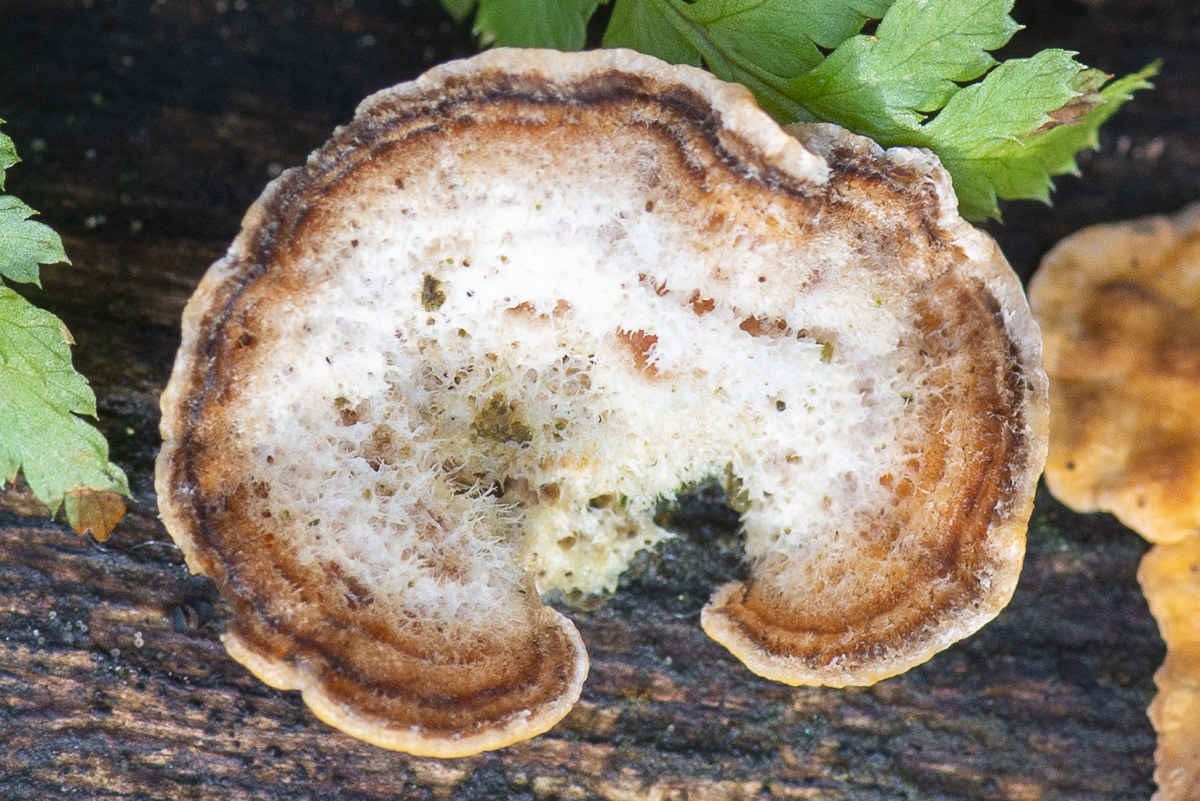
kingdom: Fungi
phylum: Basidiomycota
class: Agaricomycetes
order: Russulales
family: Stereaceae
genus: Stereum
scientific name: Stereum hirsutum
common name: håret lædersvamp
